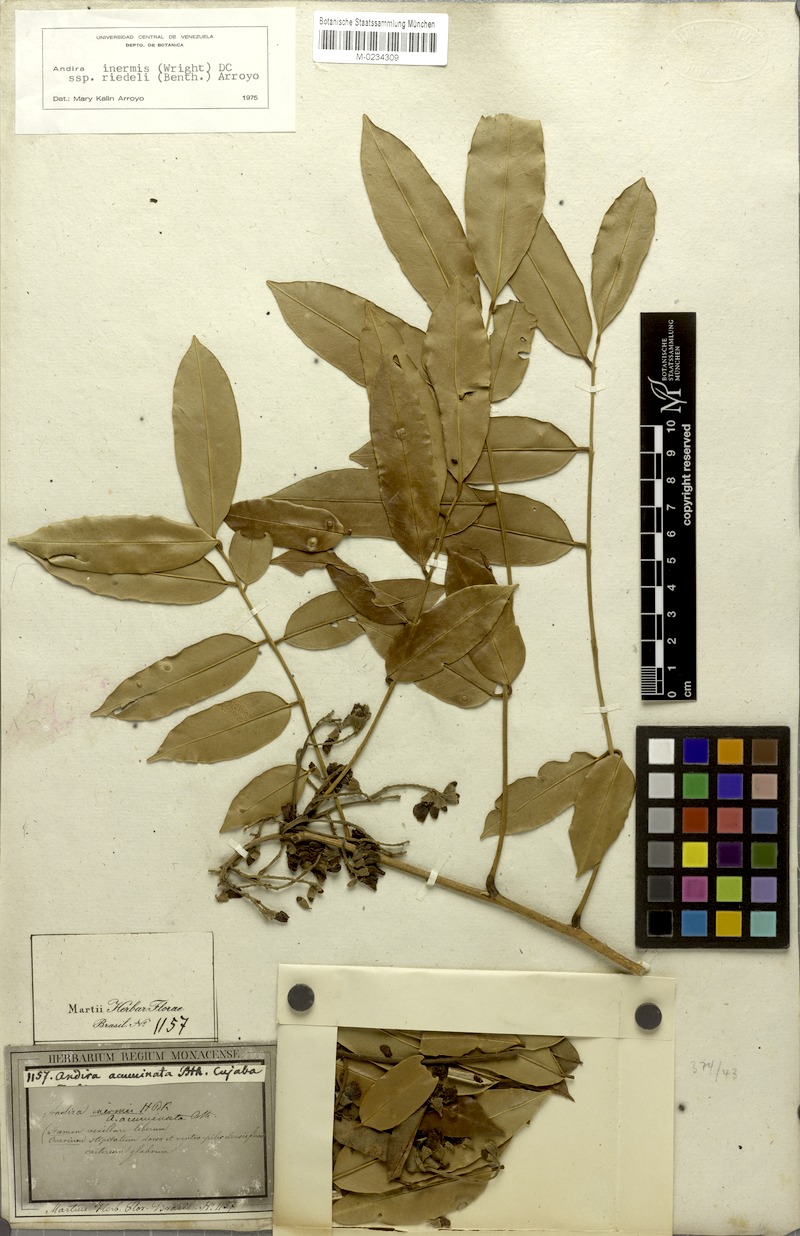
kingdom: Plantae
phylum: Tracheophyta
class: Magnoliopsida
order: Fabales
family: Fabaceae
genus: Andira
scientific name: Andira inermis
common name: Angelin
